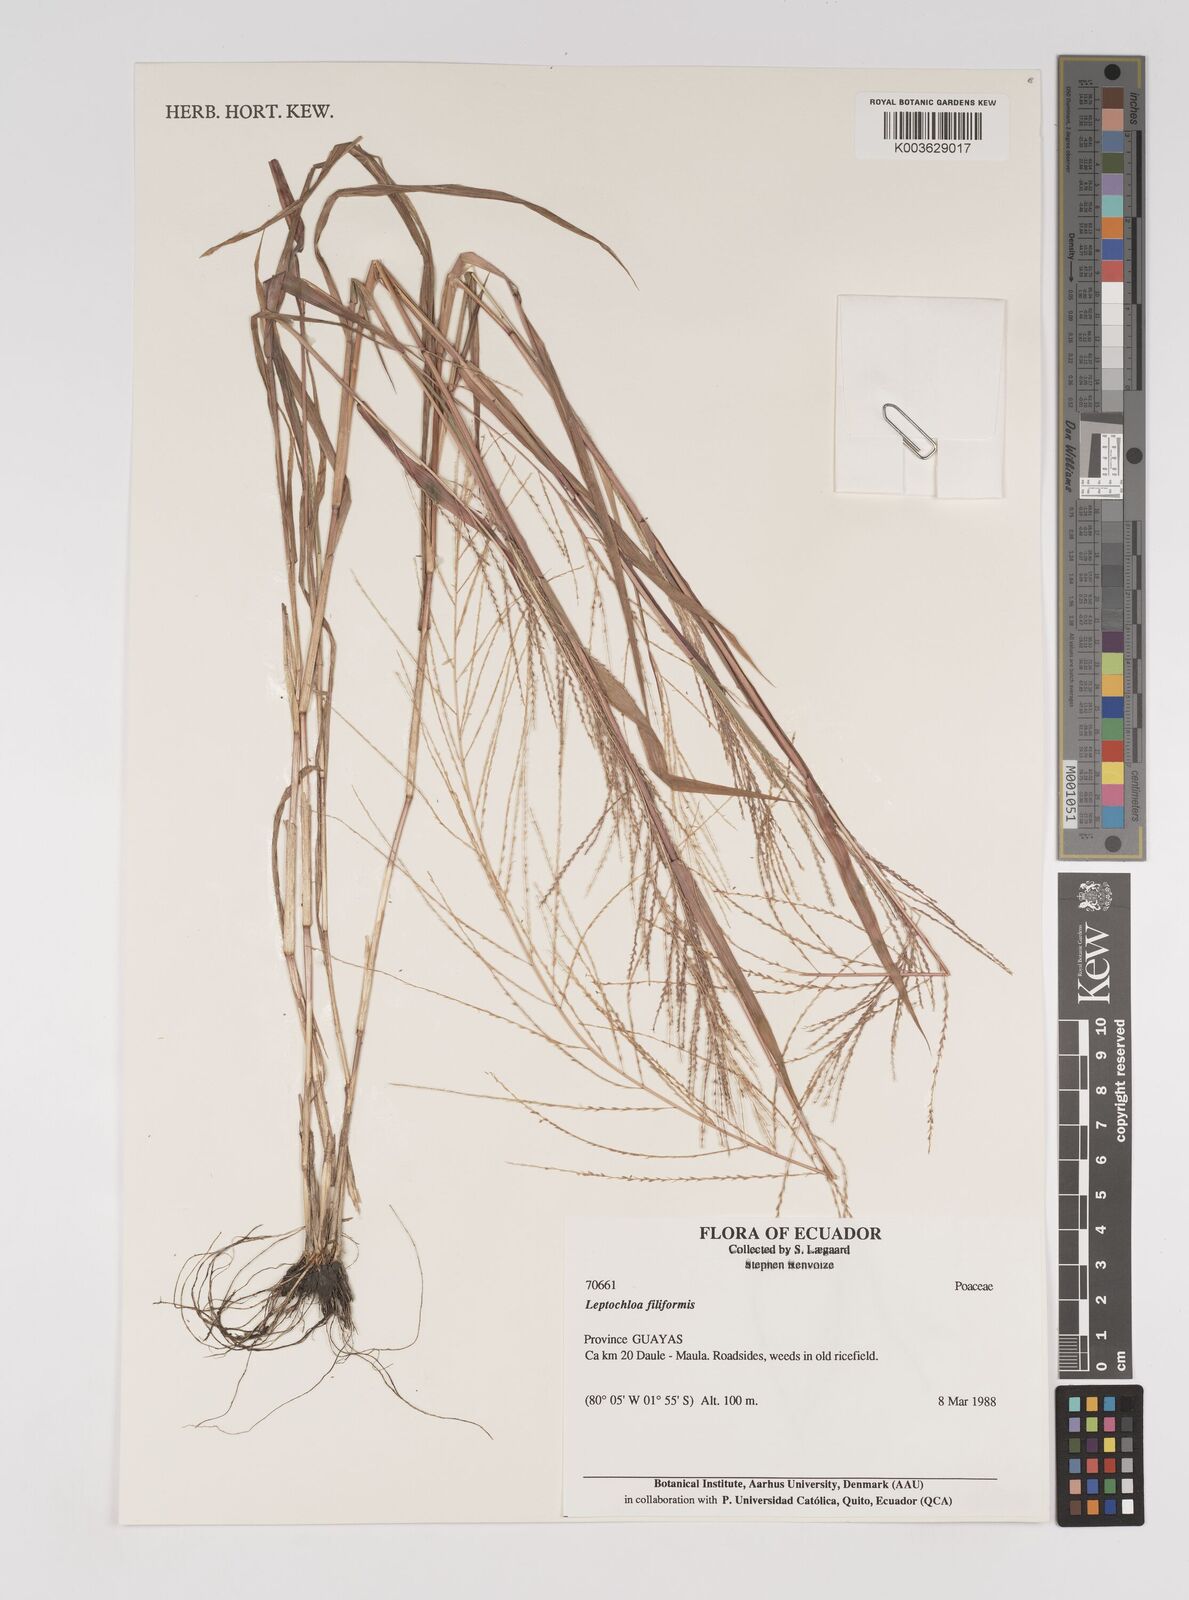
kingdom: Plantae
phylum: Tracheophyta
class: Liliopsida
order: Poales
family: Poaceae
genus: Leptochloa
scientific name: Leptochloa panicea
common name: Mucronate sprangletop
